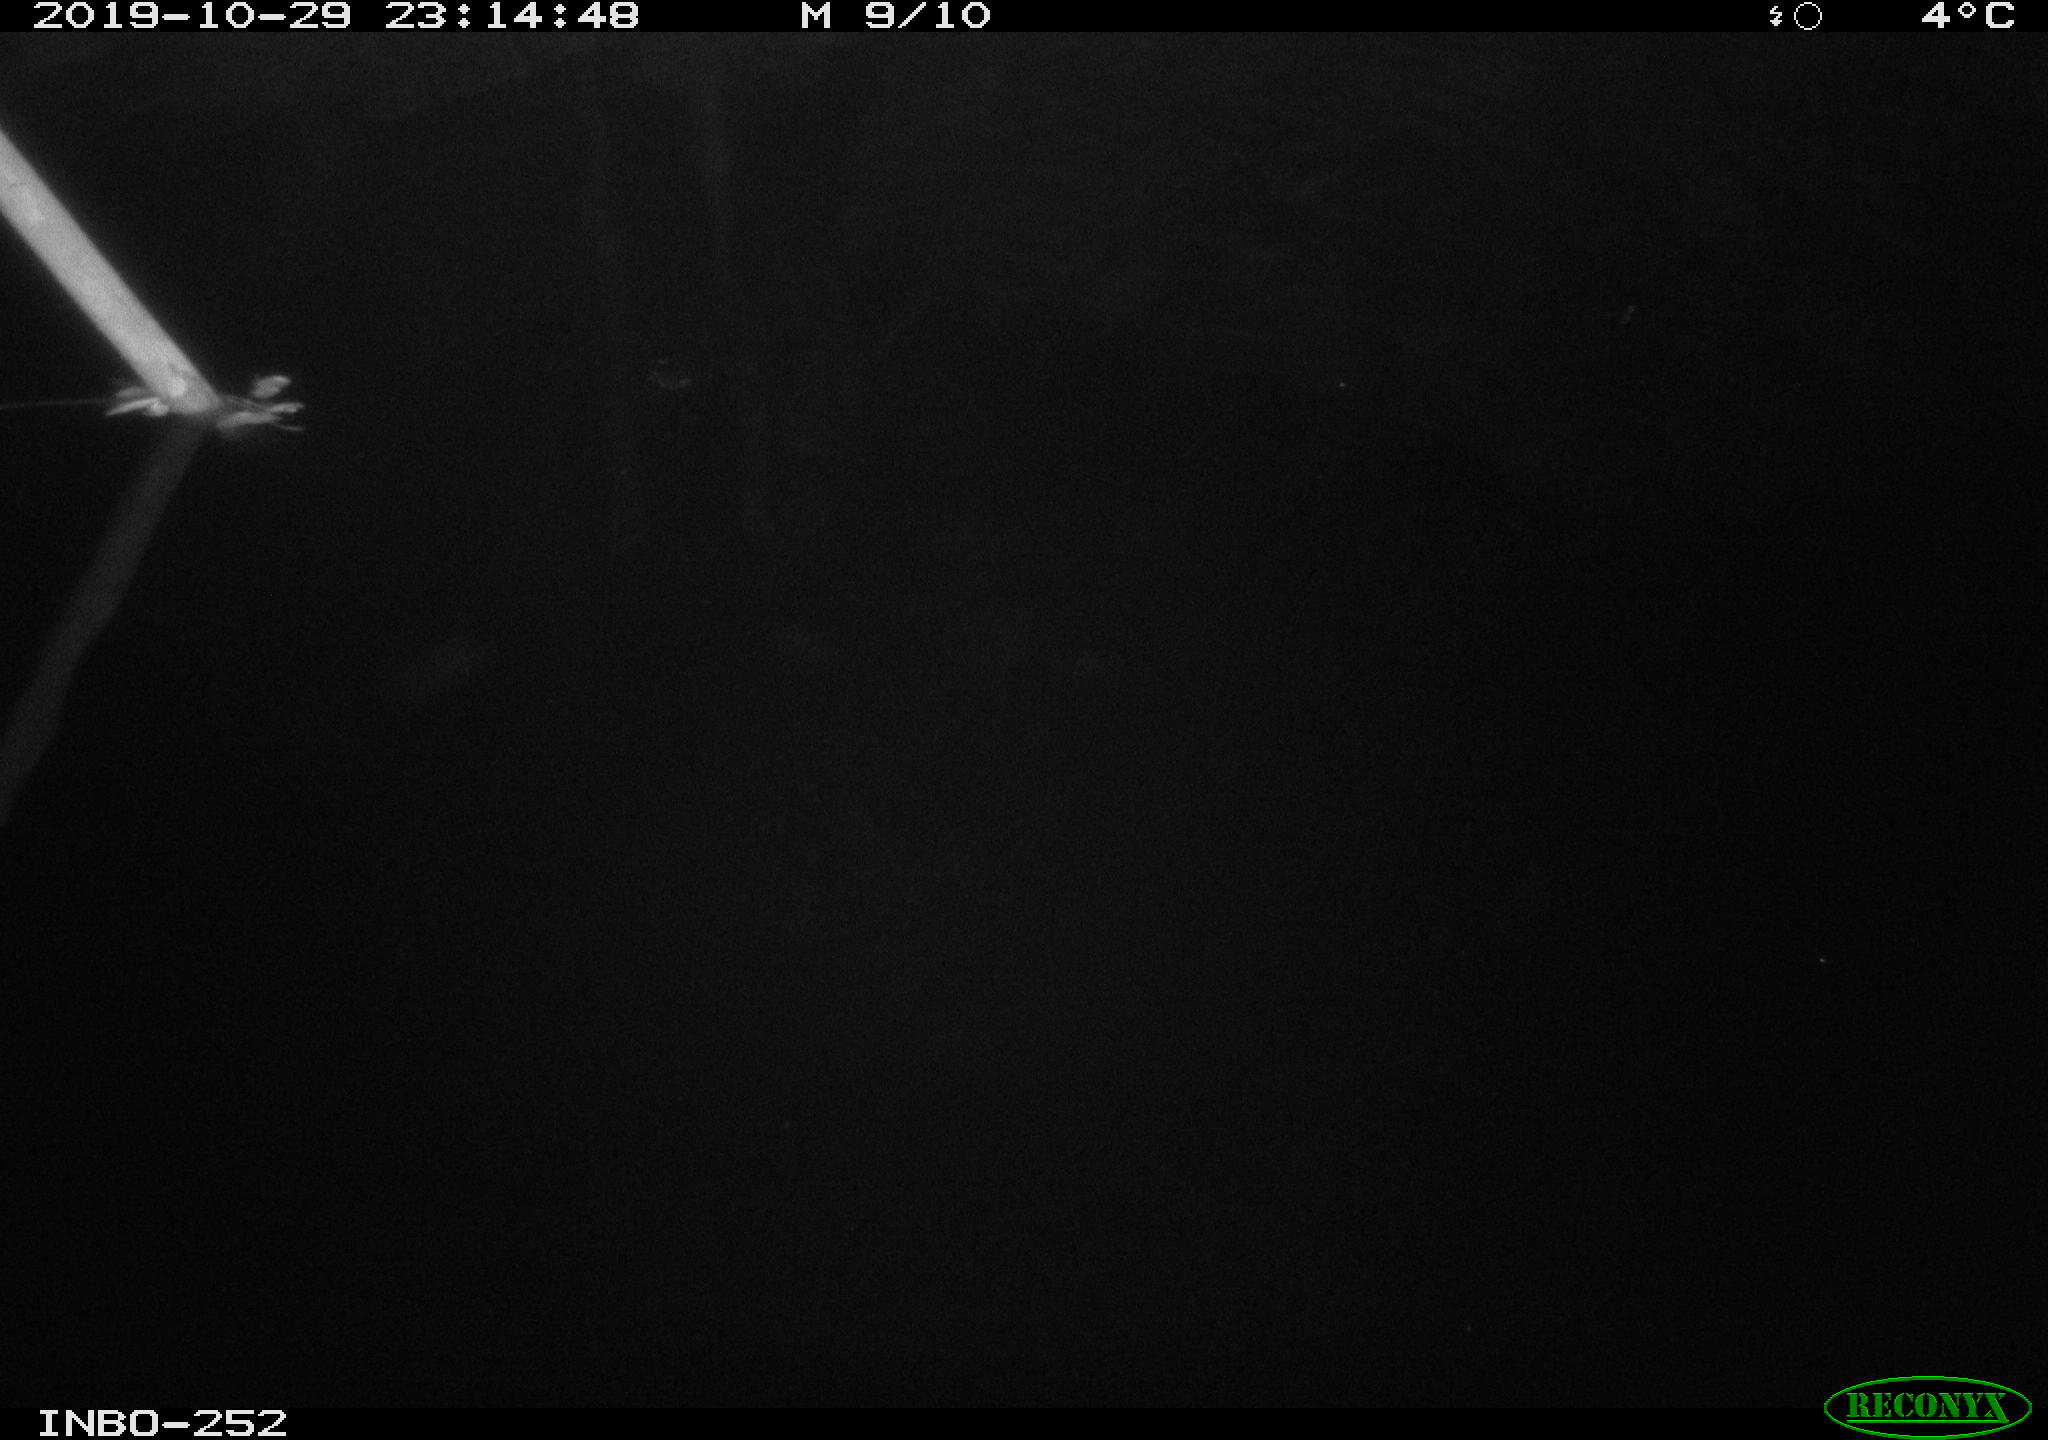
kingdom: Animalia
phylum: Chordata
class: Aves
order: Anseriformes
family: Anatidae
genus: Anas
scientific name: Anas platyrhynchos
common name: Mallard
